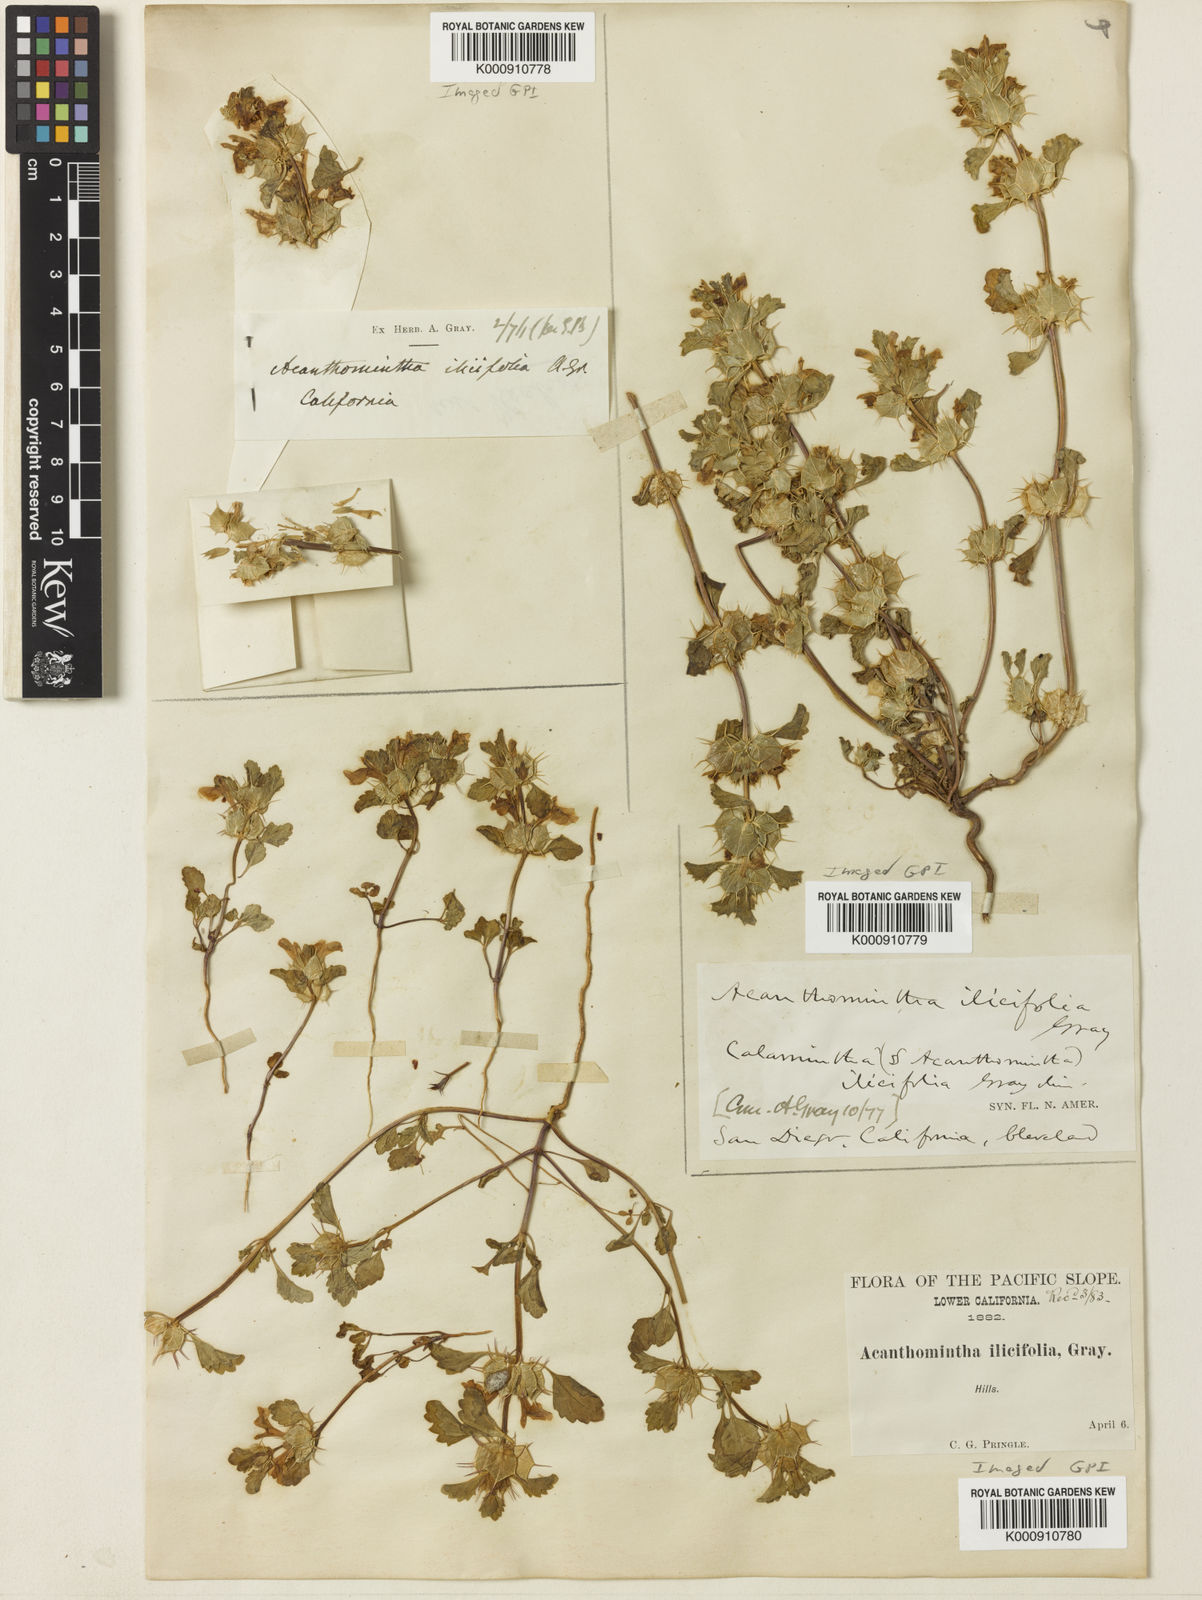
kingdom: Plantae
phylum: Tracheophyta
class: Magnoliopsida
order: Lamiales
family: Lamiaceae
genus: Acanthomintha
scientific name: Acanthomintha ilicifolia
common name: San diego thorn-mint
